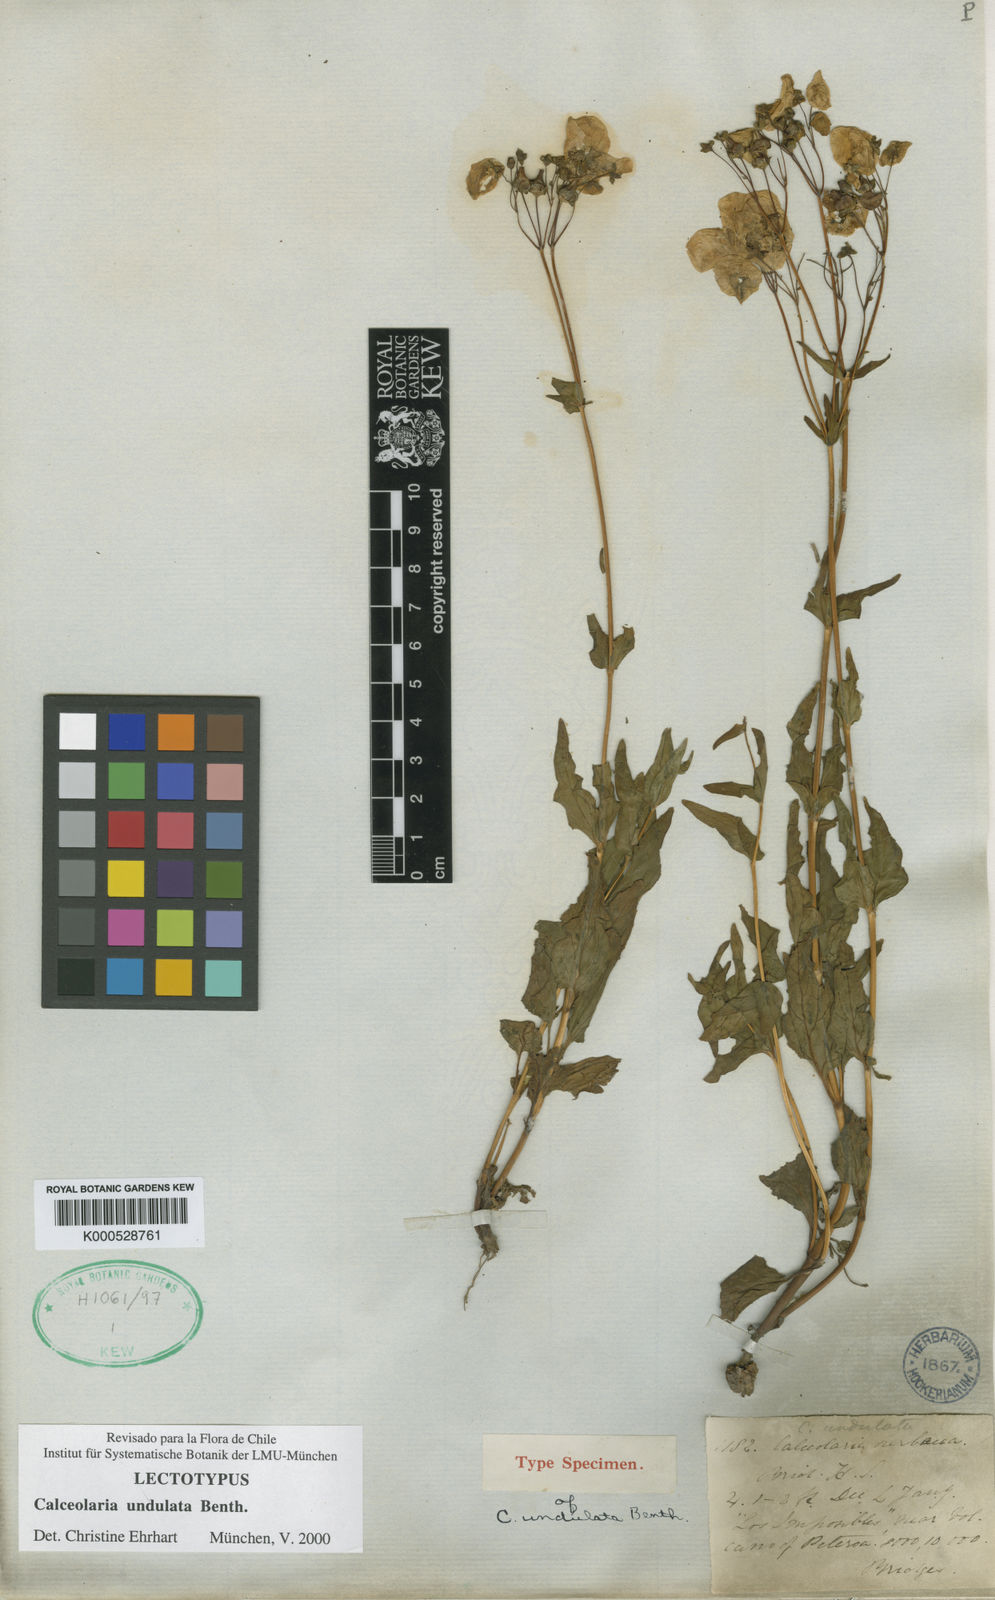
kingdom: Plantae
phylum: Tracheophyta
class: Magnoliopsida
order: Lamiales
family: Calceolariaceae
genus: Calceolaria
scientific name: Calceolaria undulata
